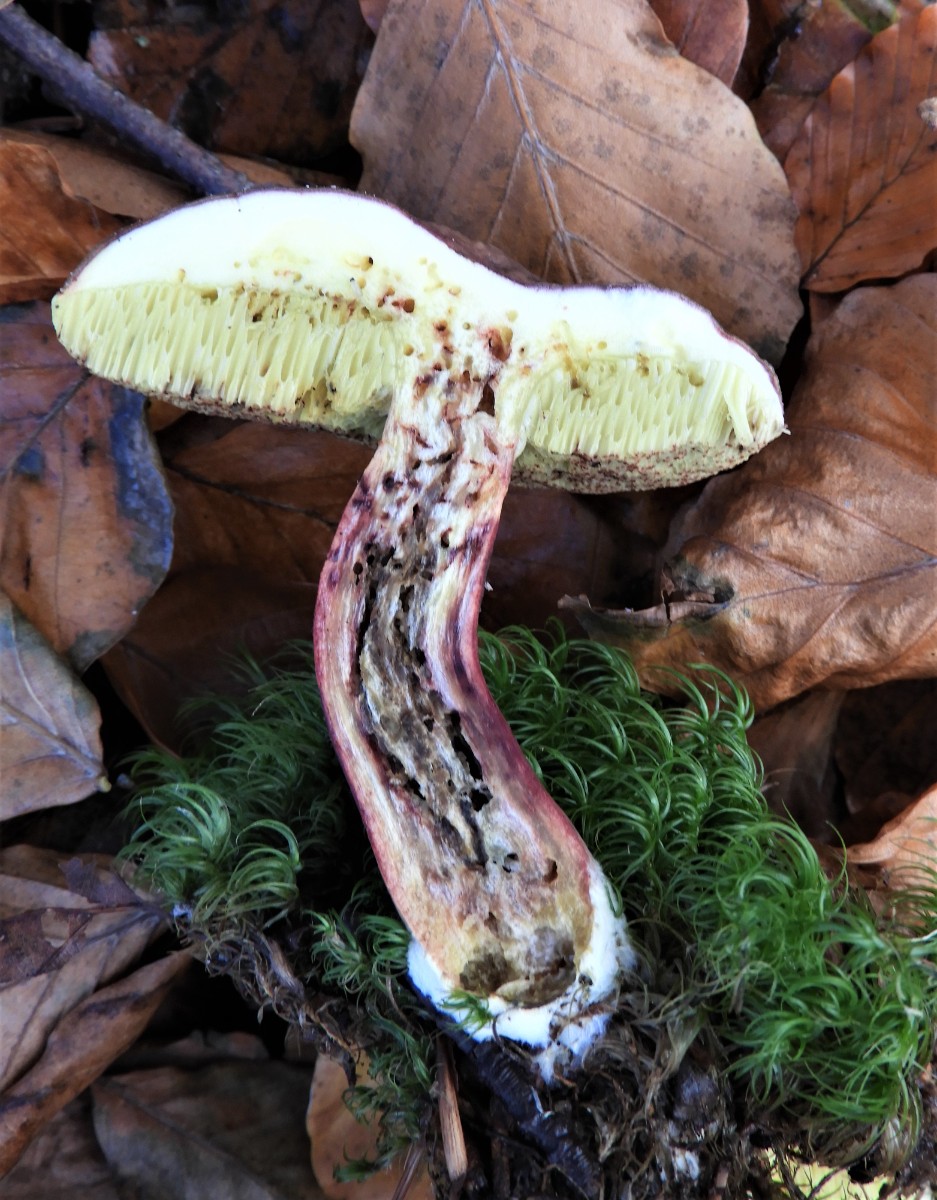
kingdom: Fungi
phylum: Basidiomycota
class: Agaricomycetes
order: Boletales
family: Boletaceae
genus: Xerocomellus
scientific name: Xerocomellus pruinatus
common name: dugget rørhat
